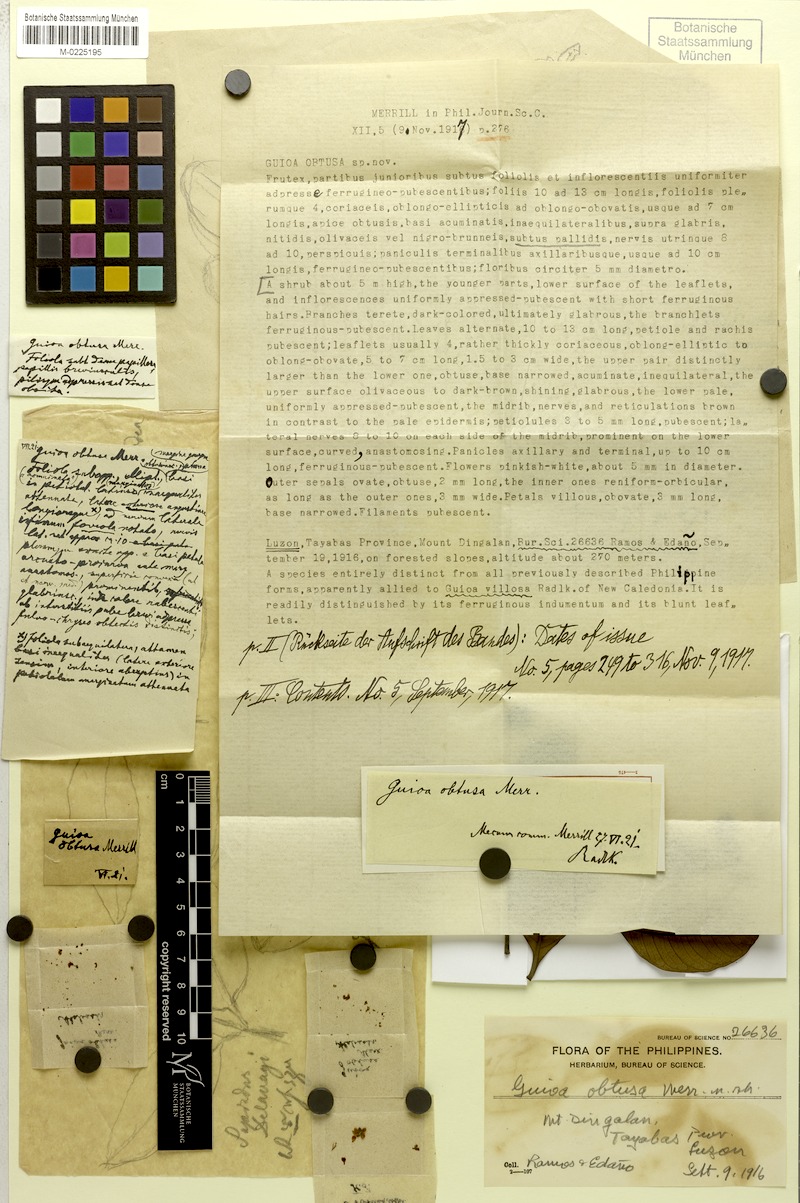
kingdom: Plantae
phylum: Tracheophyta
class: Magnoliopsida
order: Sapindales
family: Sapindaceae
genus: Guioa
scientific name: Guioa myriadenia
